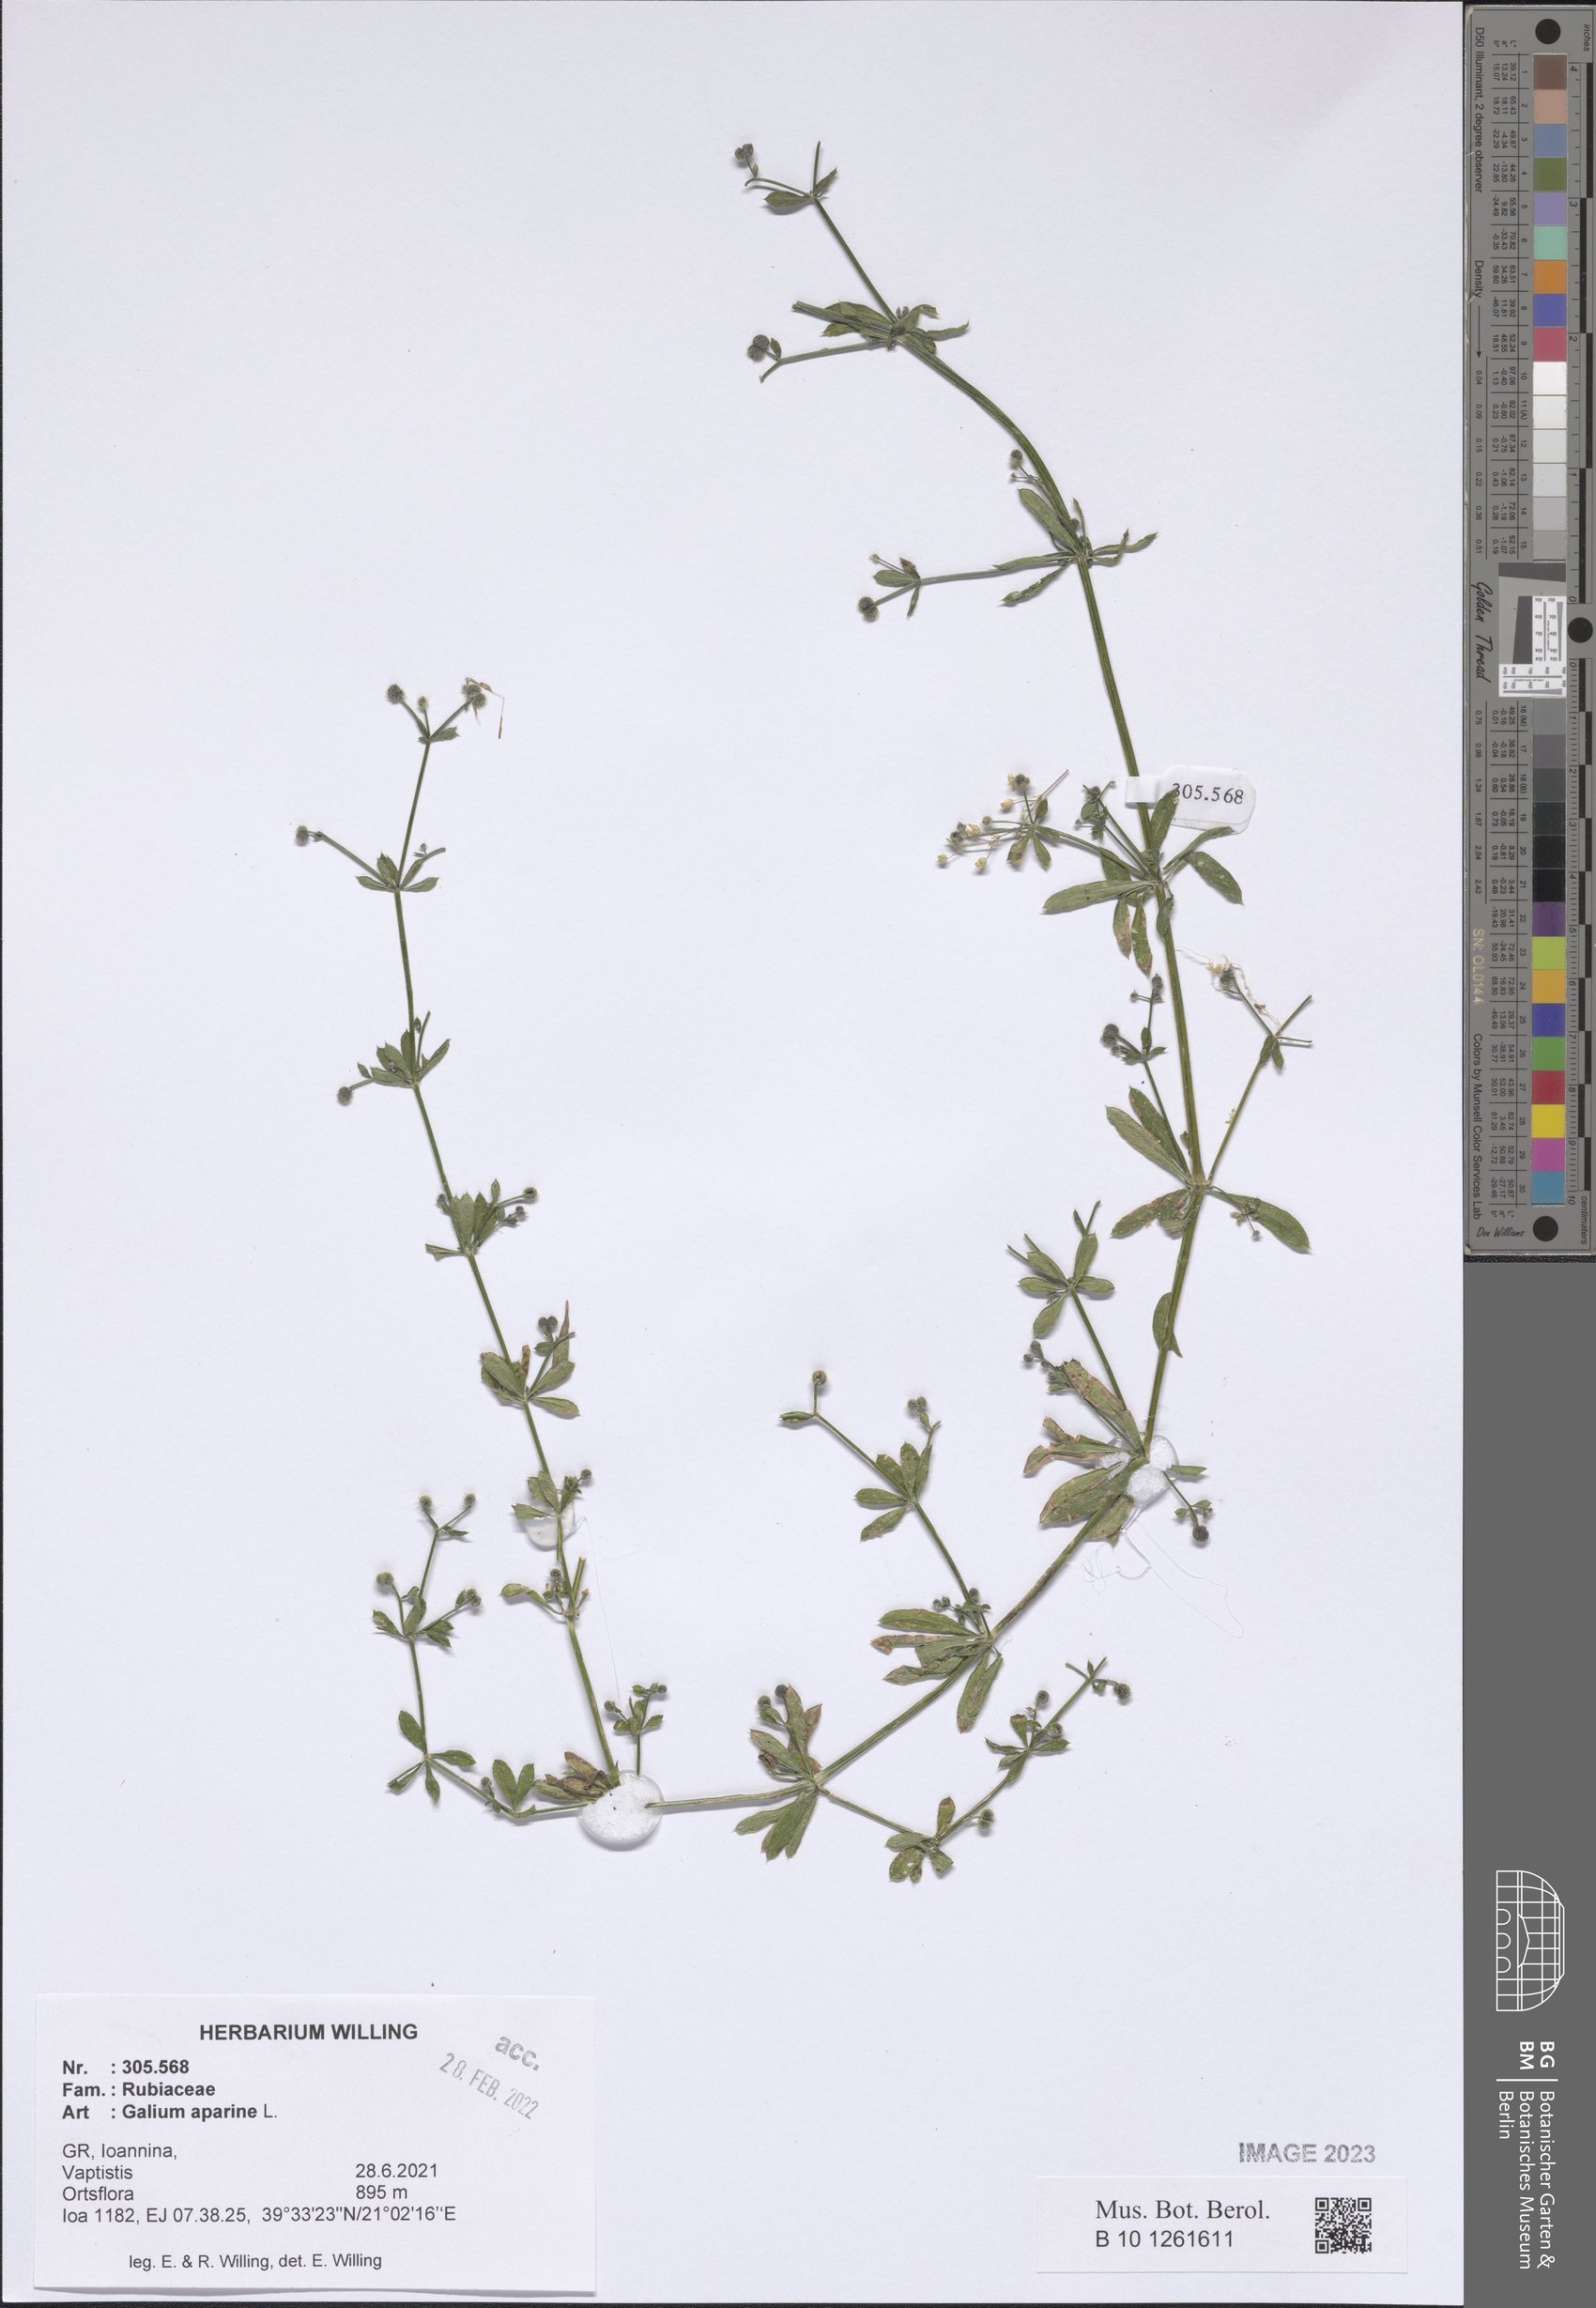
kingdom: Plantae
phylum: Tracheophyta
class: Magnoliopsida
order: Gentianales
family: Rubiaceae
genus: Galium
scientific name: Galium aparine
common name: Cleavers
